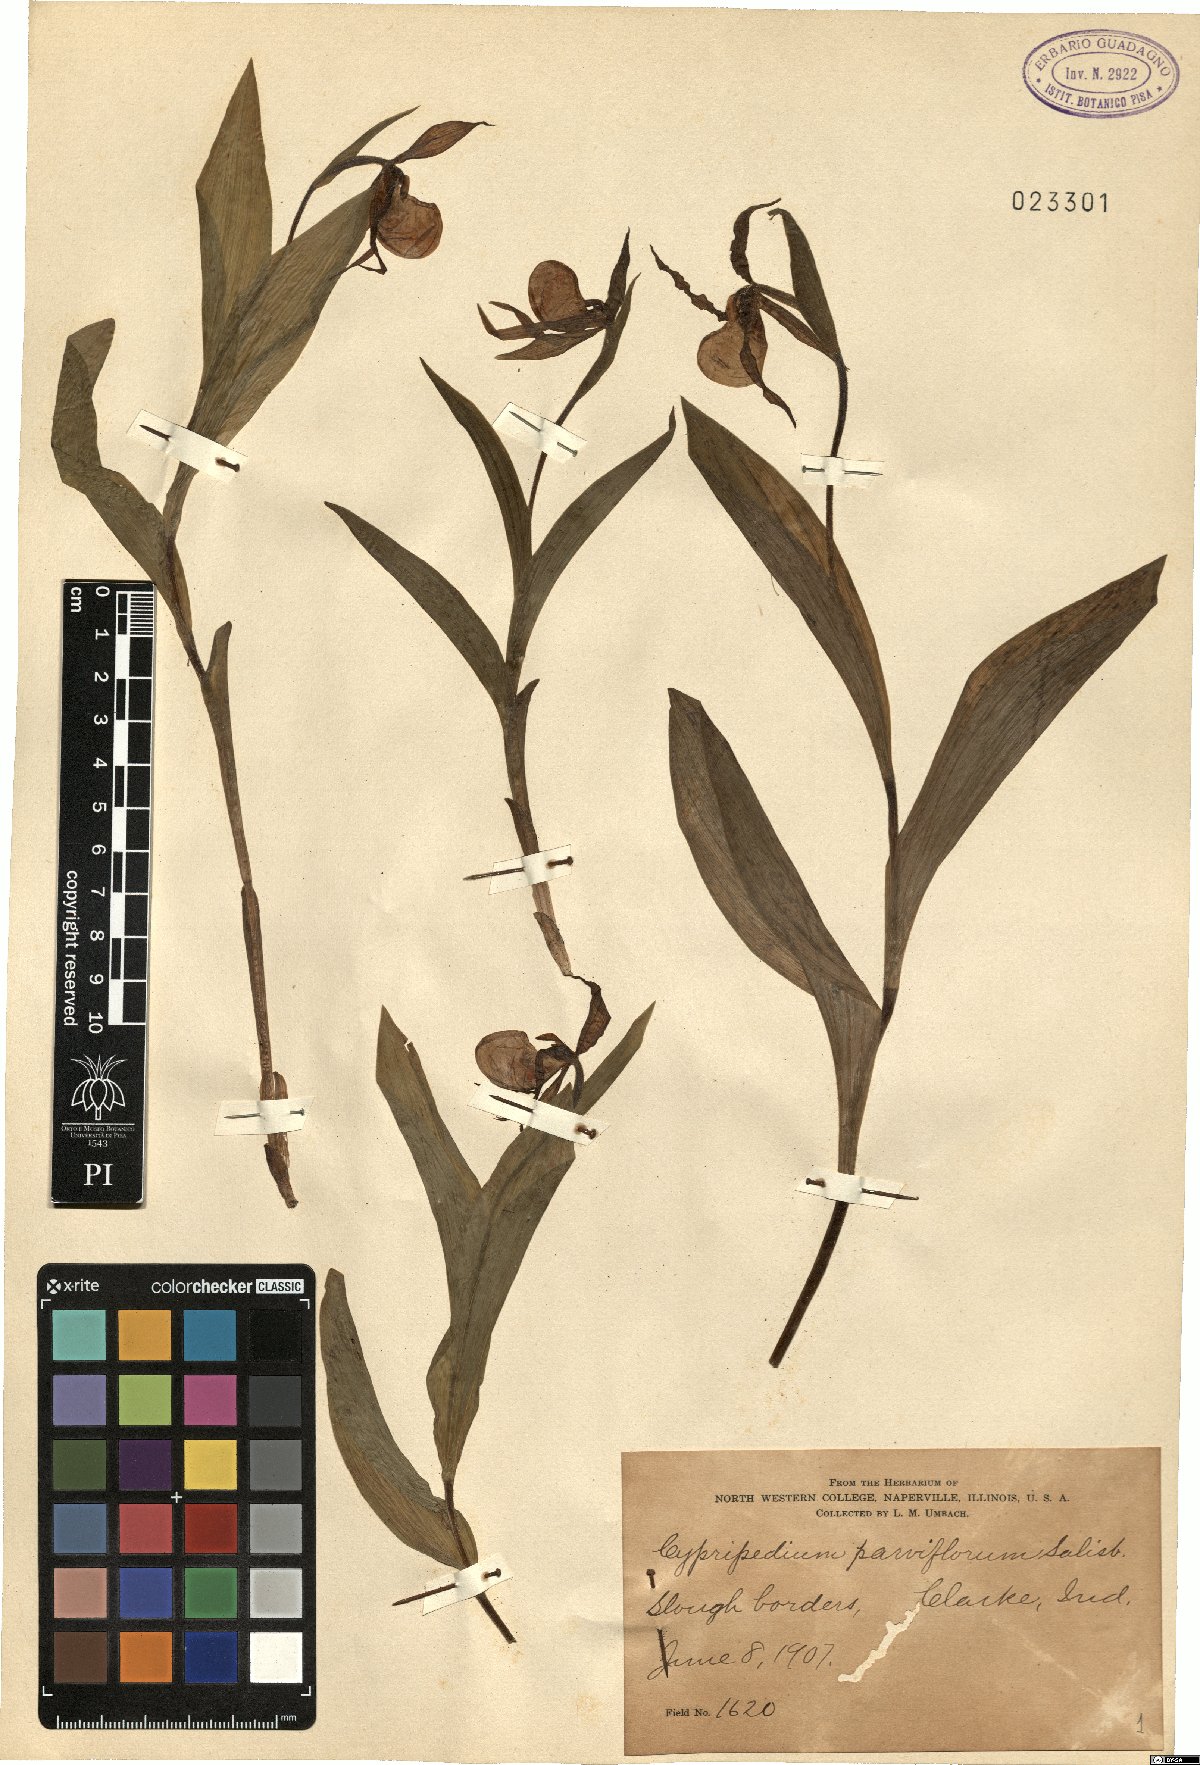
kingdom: Plantae
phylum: Tracheophyta
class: Liliopsida
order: Asparagales
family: Orchidaceae
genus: Cypripedium
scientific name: Cypripedium parviflorum
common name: American yellow lady's-slipper
